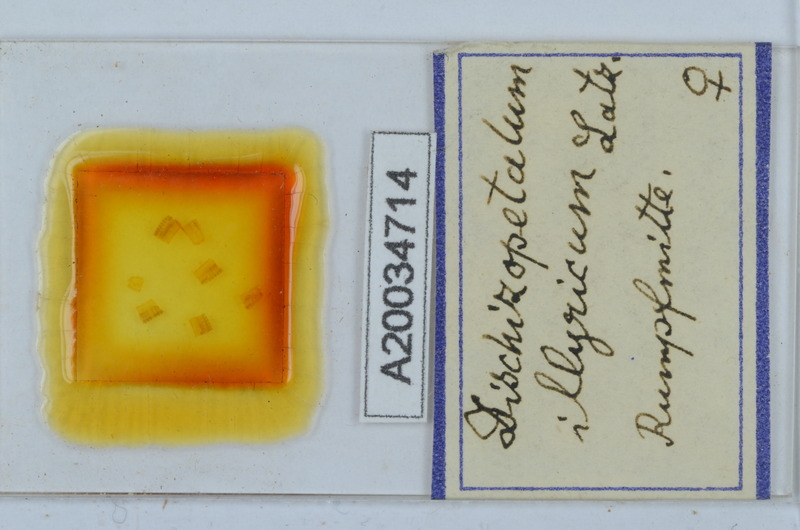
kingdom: Animalia
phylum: Arthropoda
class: Diplopoda
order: Callipodida
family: Schizopetalidae
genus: Callipodella
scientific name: Callipodella
